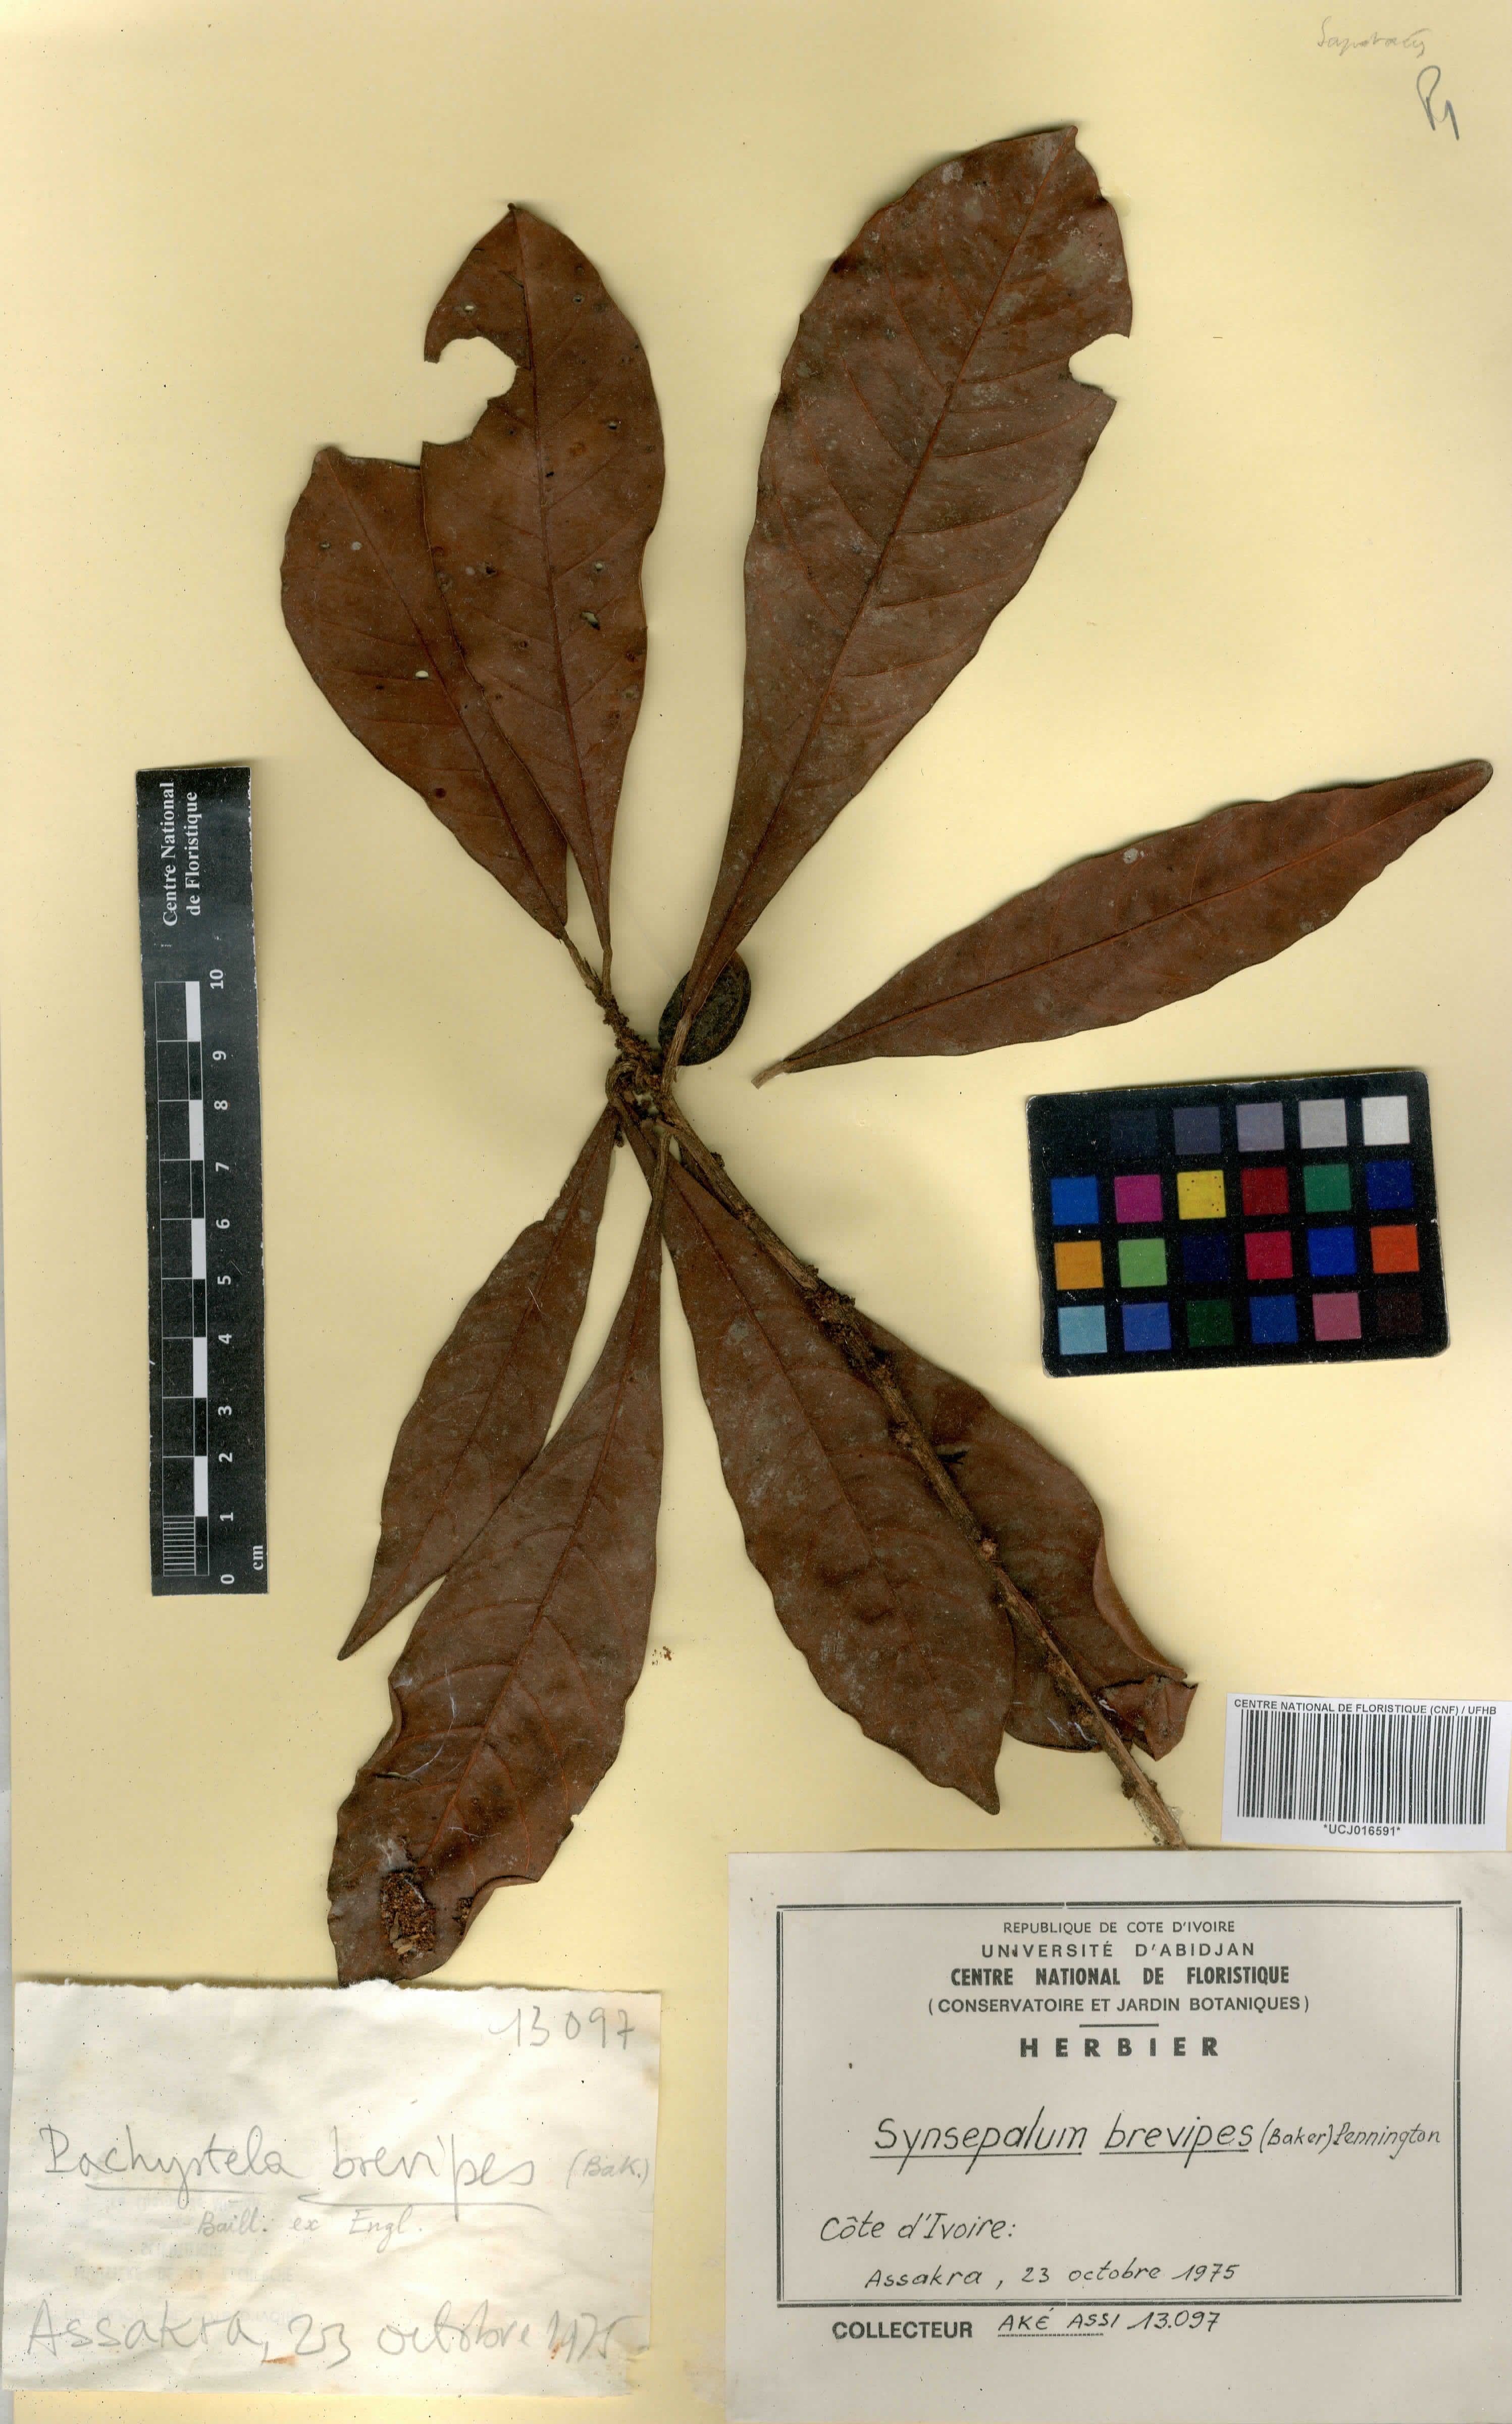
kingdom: Plantae
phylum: Tracheophyta
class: Magnoliopsida
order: Ericales
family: Sapotaceae
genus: Synsepalum
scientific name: Synsepalum brevipes
